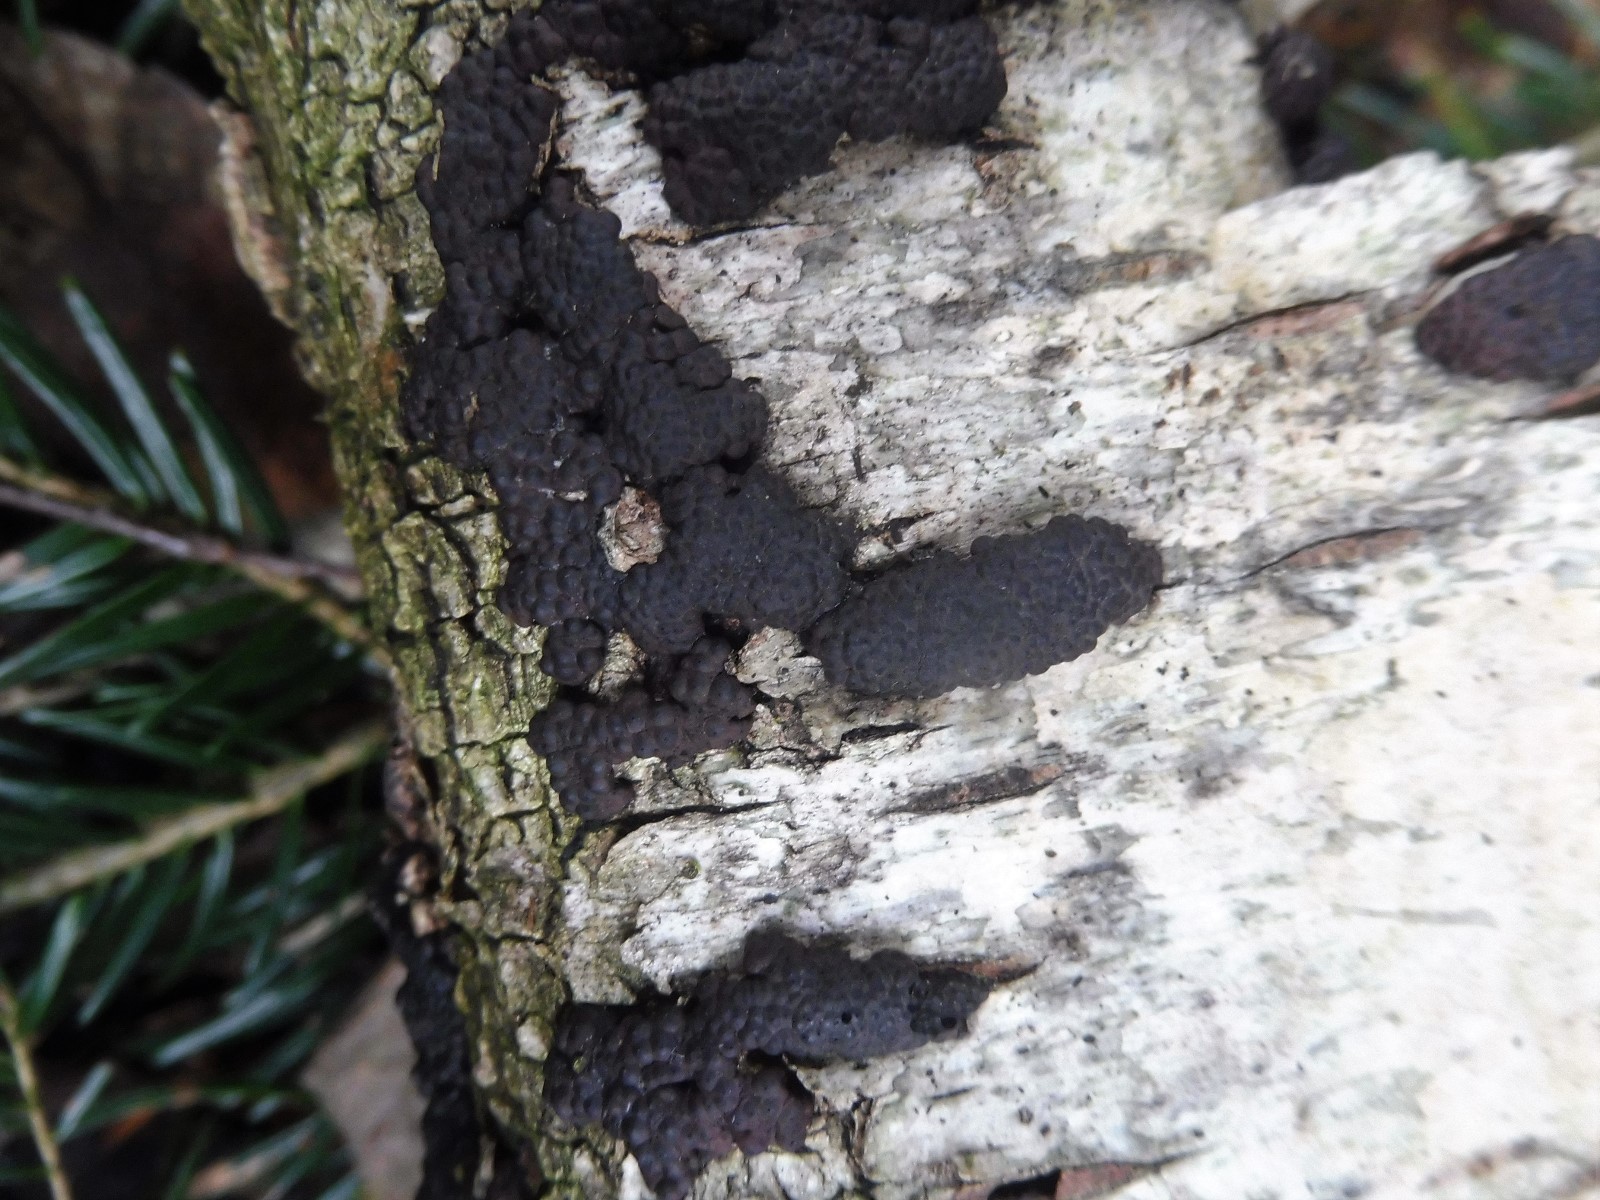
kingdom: Fungi
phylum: Ascomycota
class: Sordariomycetes
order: Xylariales
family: Hypoxylaceae
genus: Jackrogersella
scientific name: Jackrogersella multiformis
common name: foranderlig kulbær
